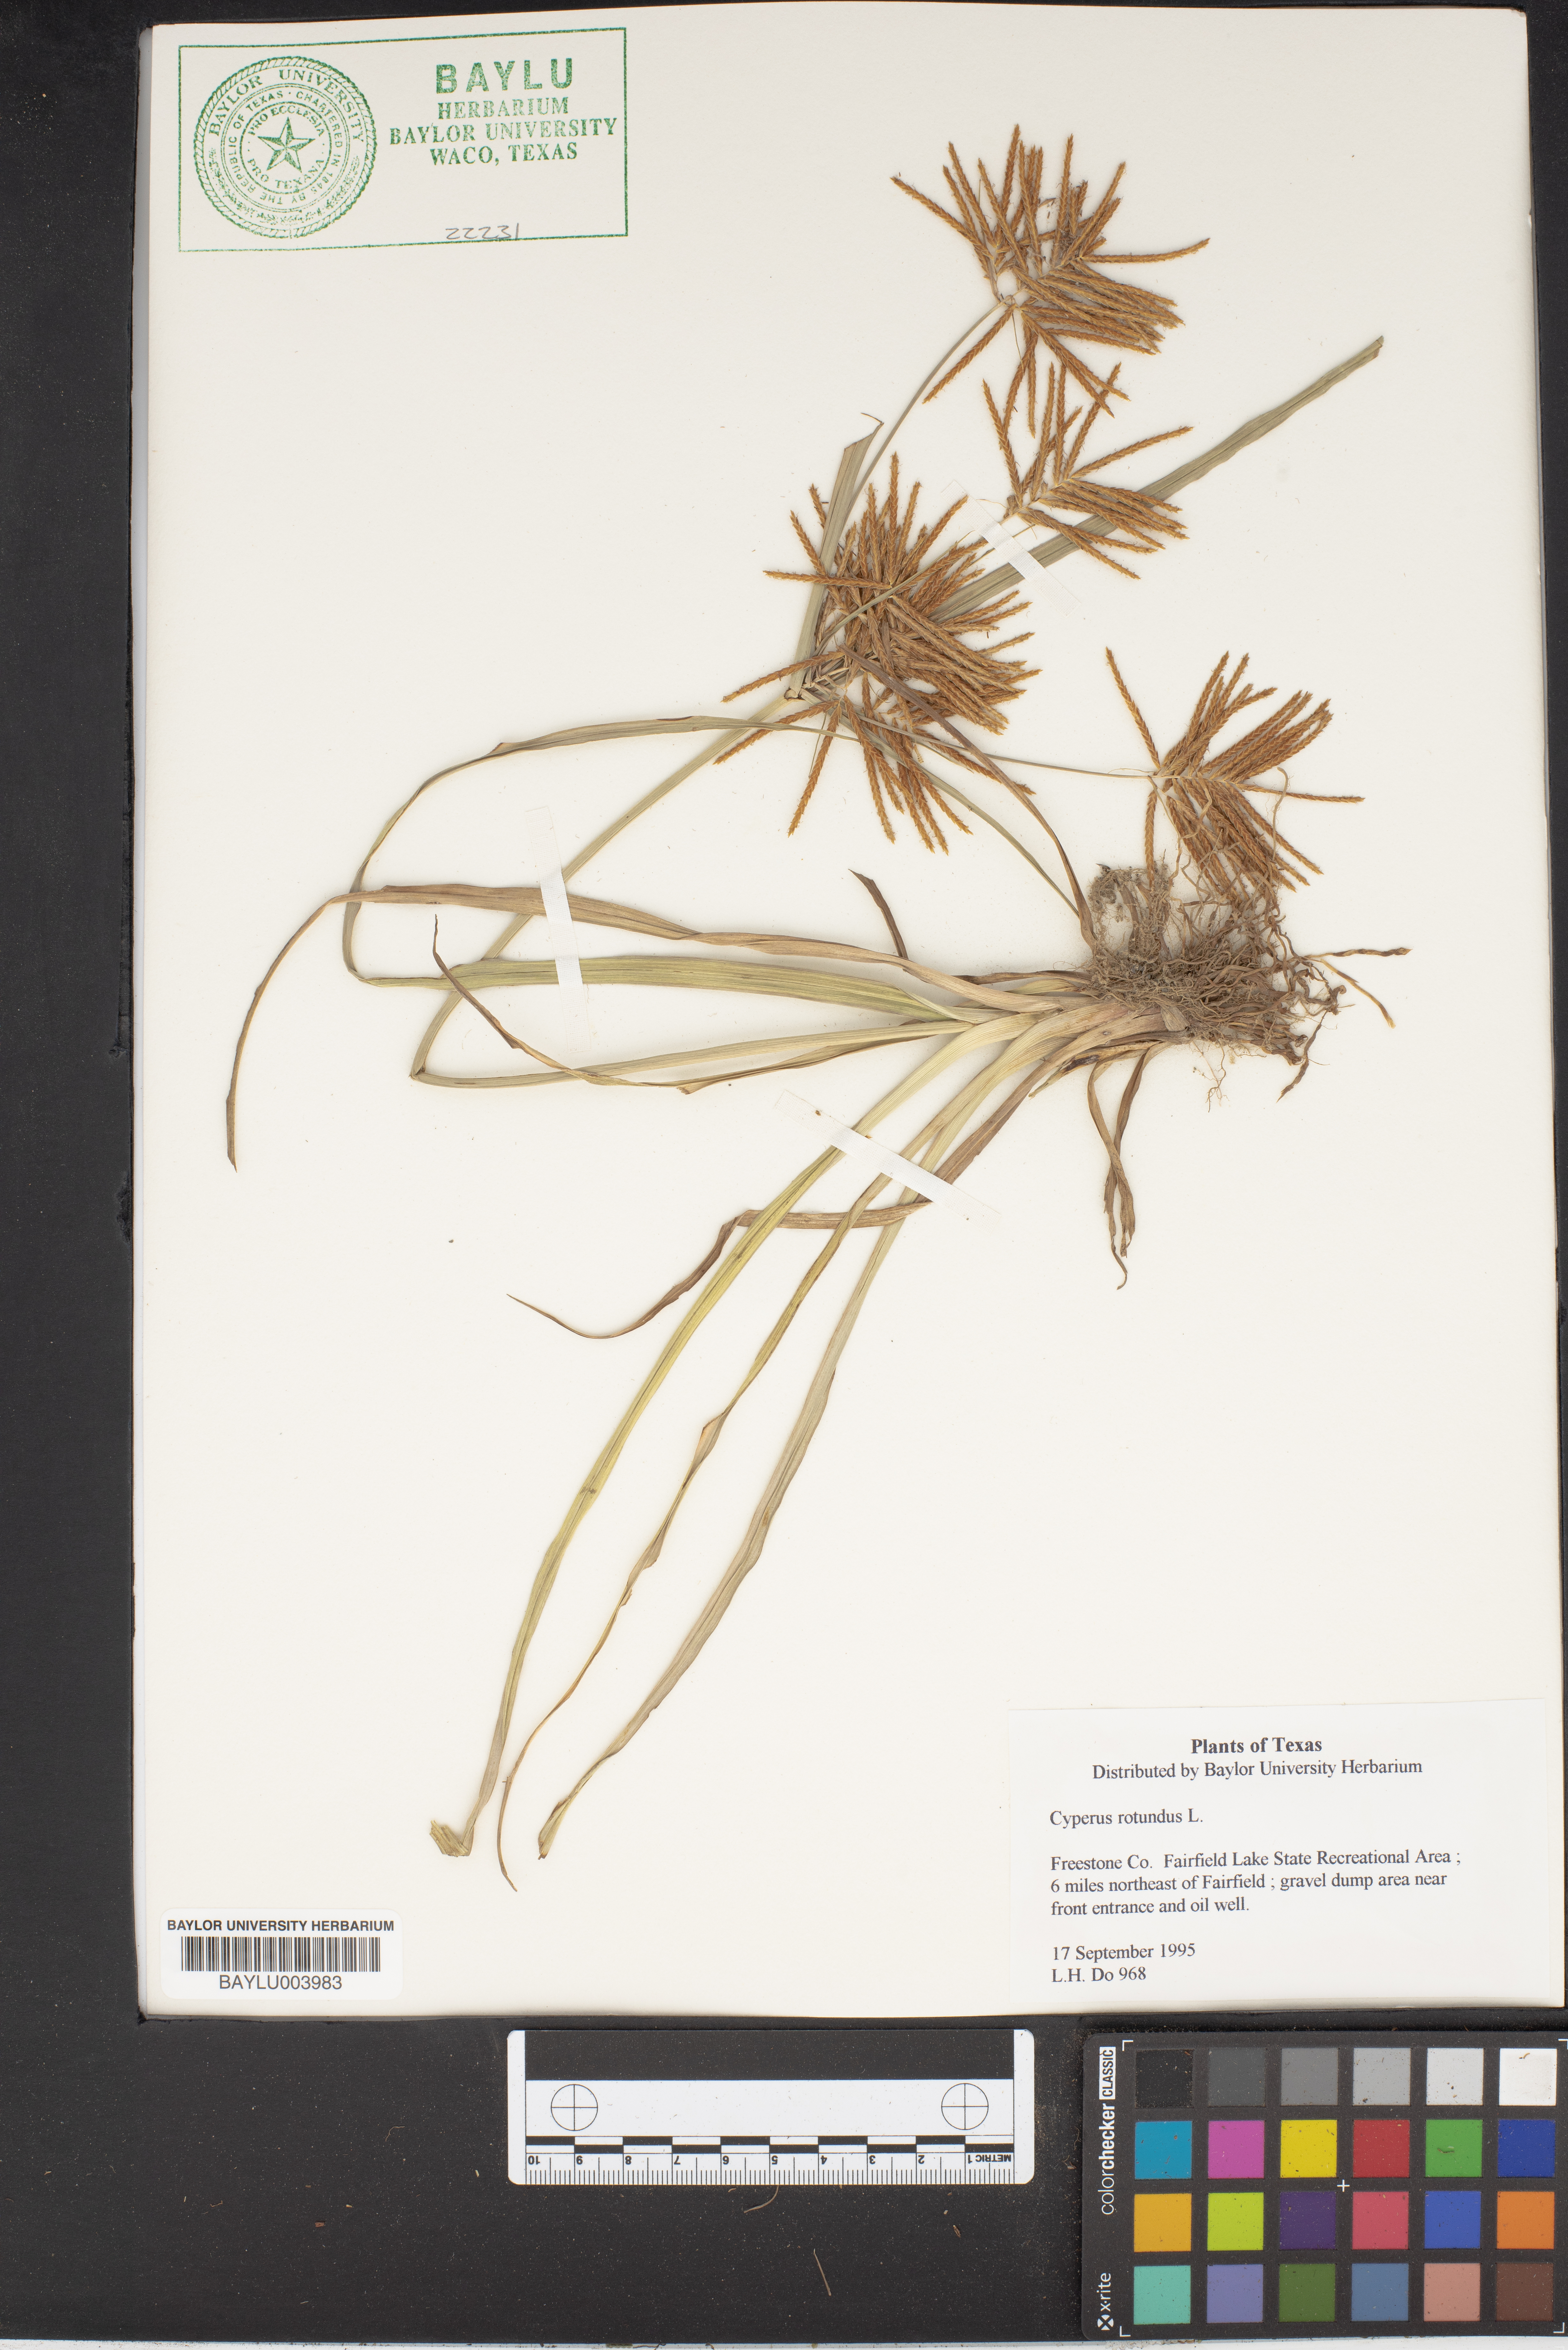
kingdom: Plantae
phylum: Tracheophyta
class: Liliopsida
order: Poales
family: Cyperaceae
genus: Cyperus
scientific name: Cyperus rotundus
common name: Nutgrass
